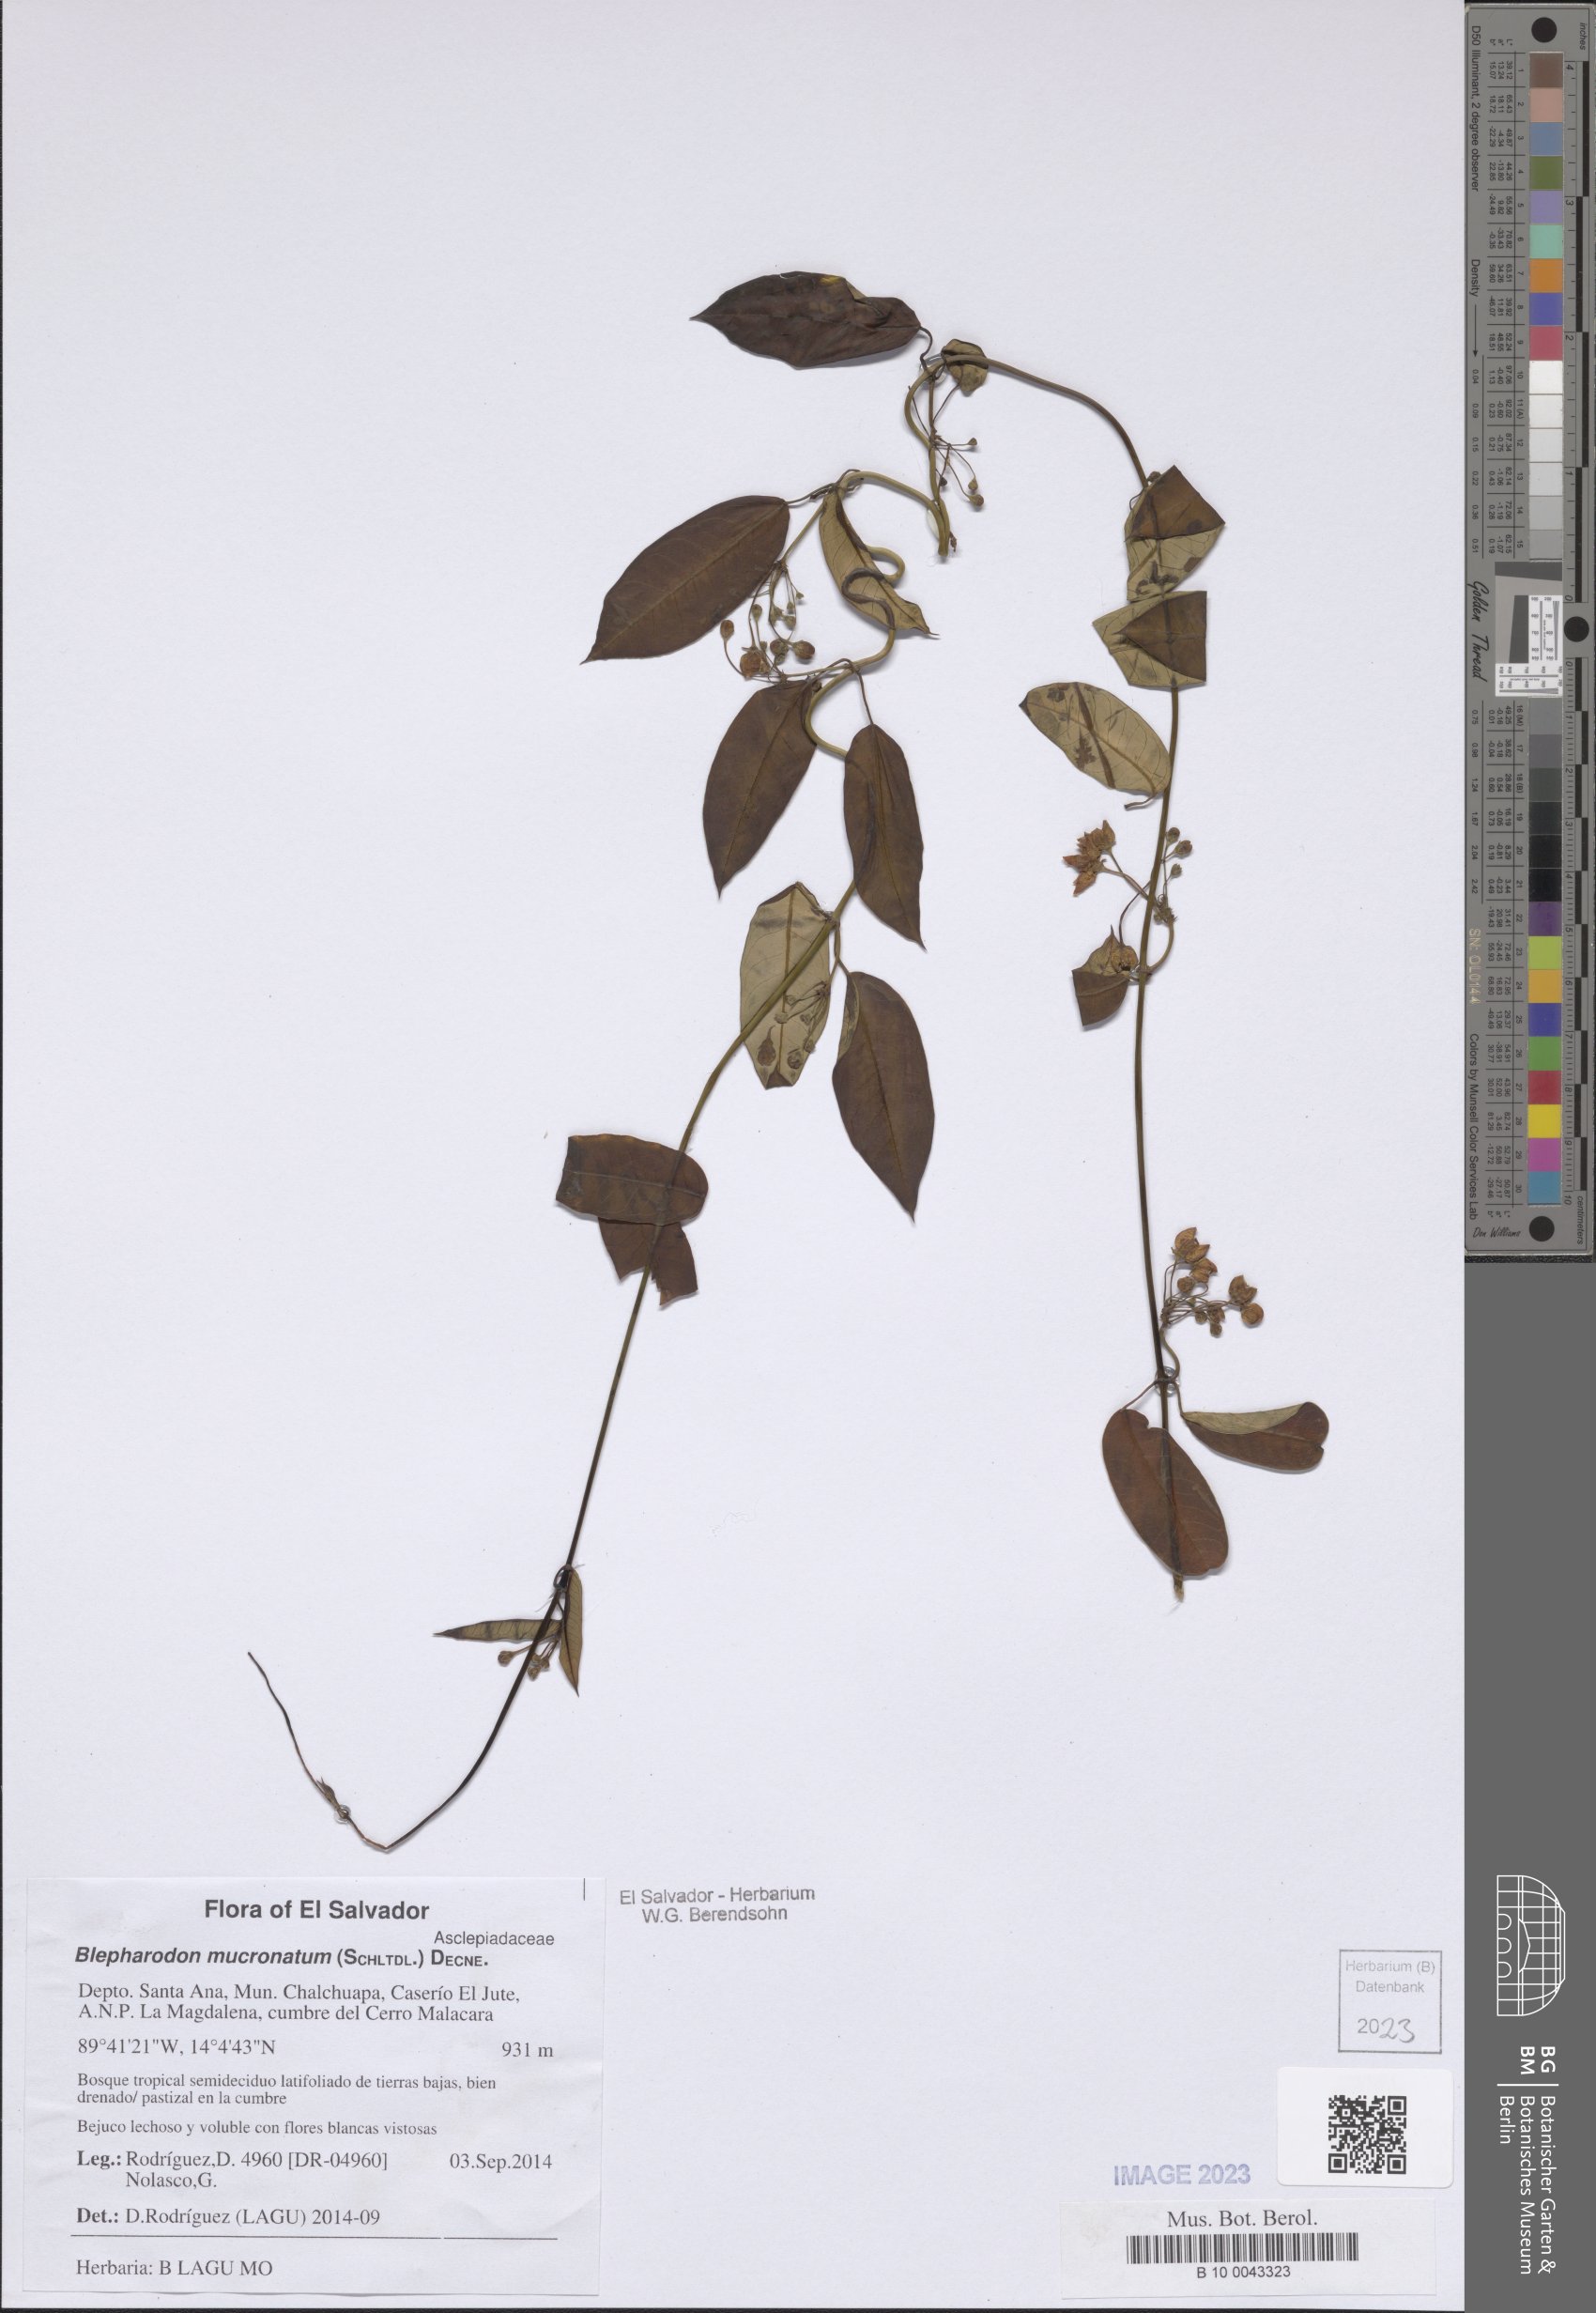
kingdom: Plantae
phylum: Tracheophyta
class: Magnoliopsida
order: Gentianales
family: Apocynaceae
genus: Vailia
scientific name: Vailia anomala
